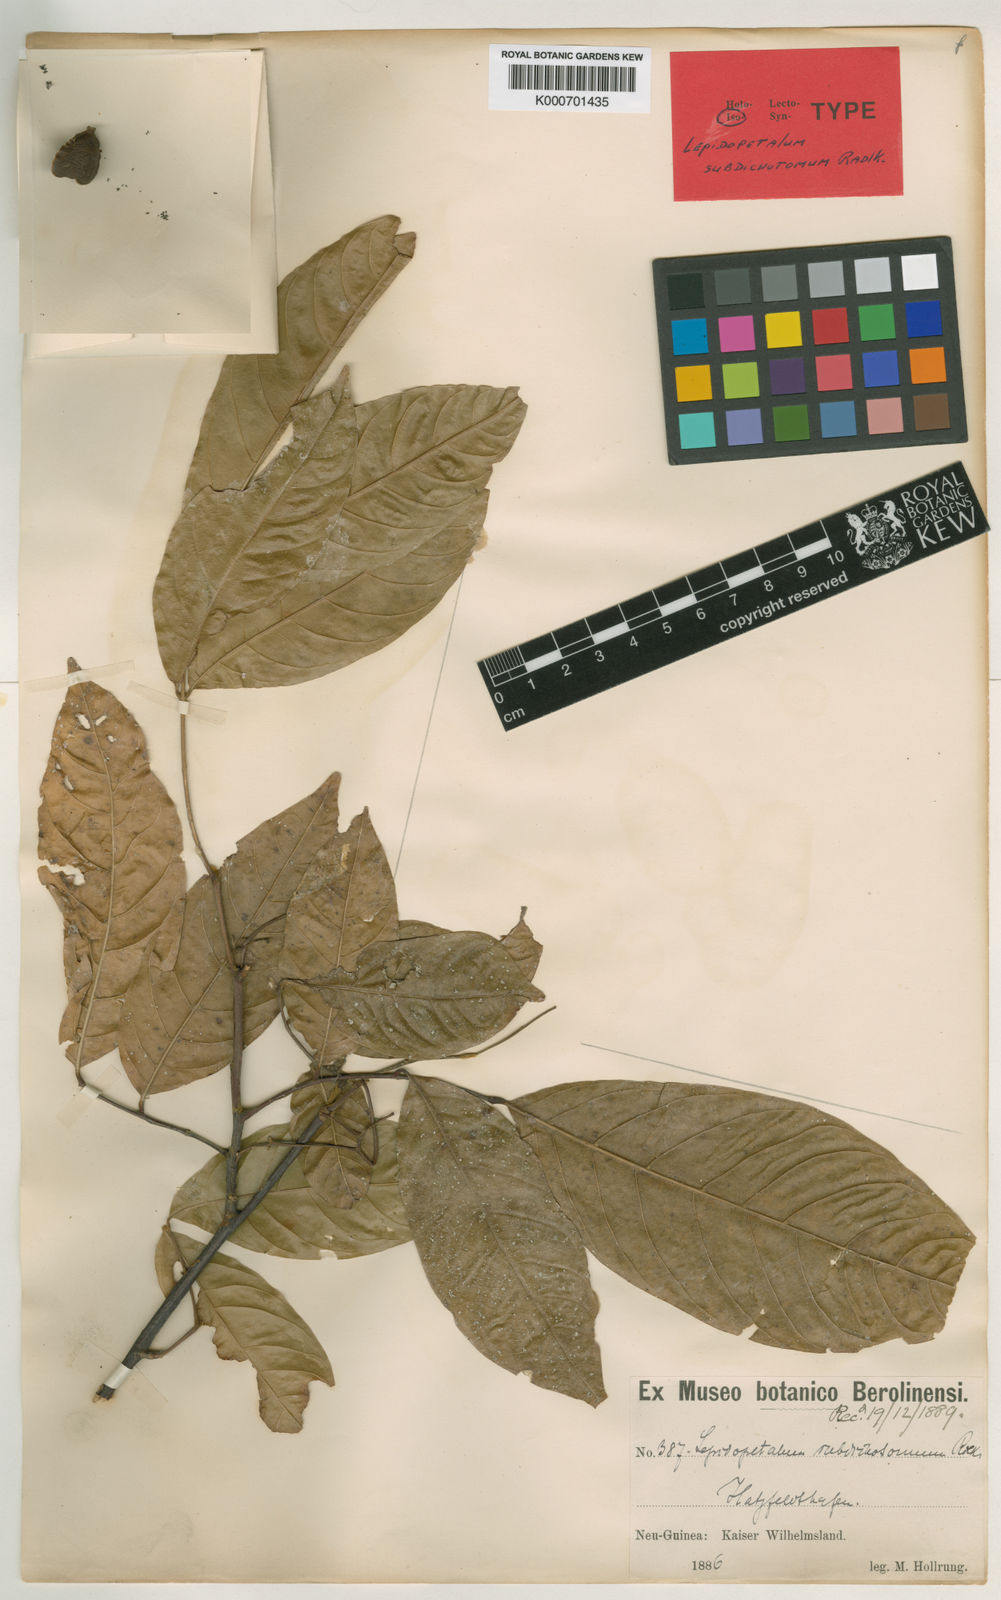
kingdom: Plantae
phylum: Tracheophyta
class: Magnoliopsida
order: Sapindales
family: Sapindaceae
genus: Lepidopetalum
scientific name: Lepidopetalum subdichotomum
